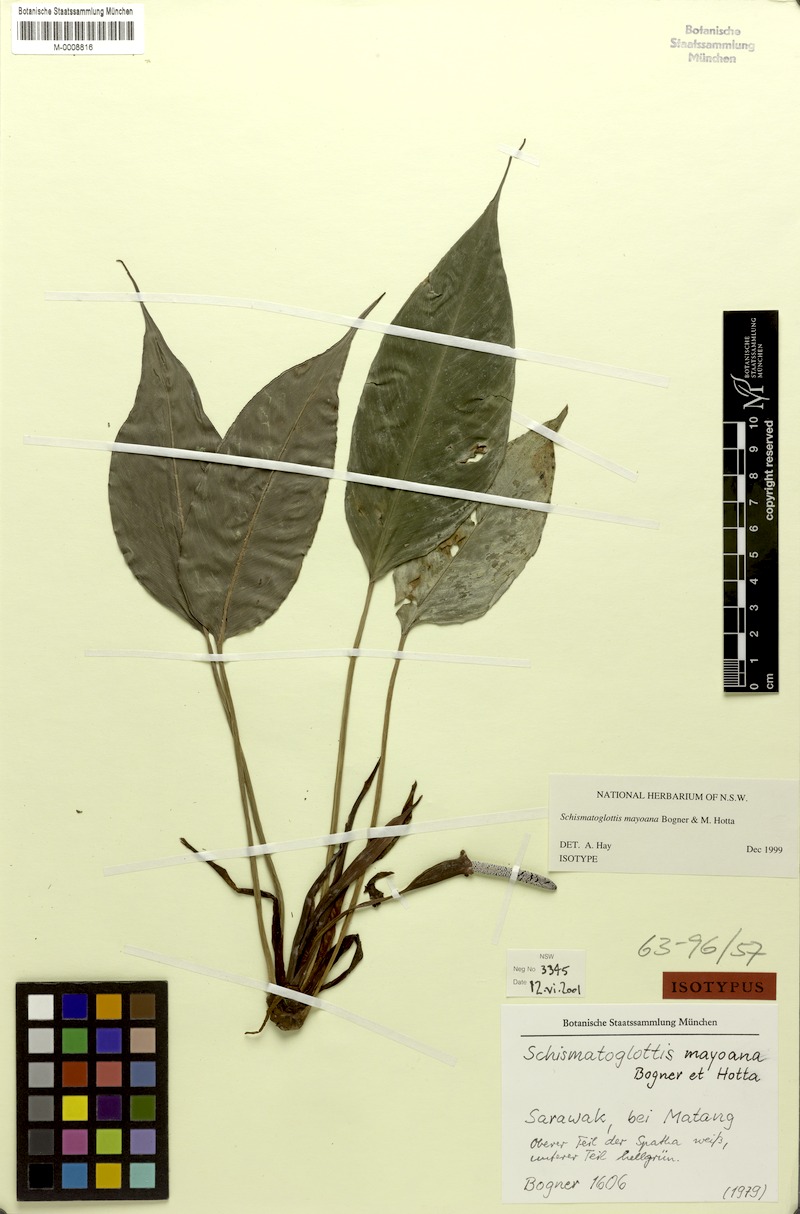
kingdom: Plantae
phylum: Tracheophyta
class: Liliopsida
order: Alismatales
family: Araceae
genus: Schismatoglottis
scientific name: Schismatoglottis mayoana
